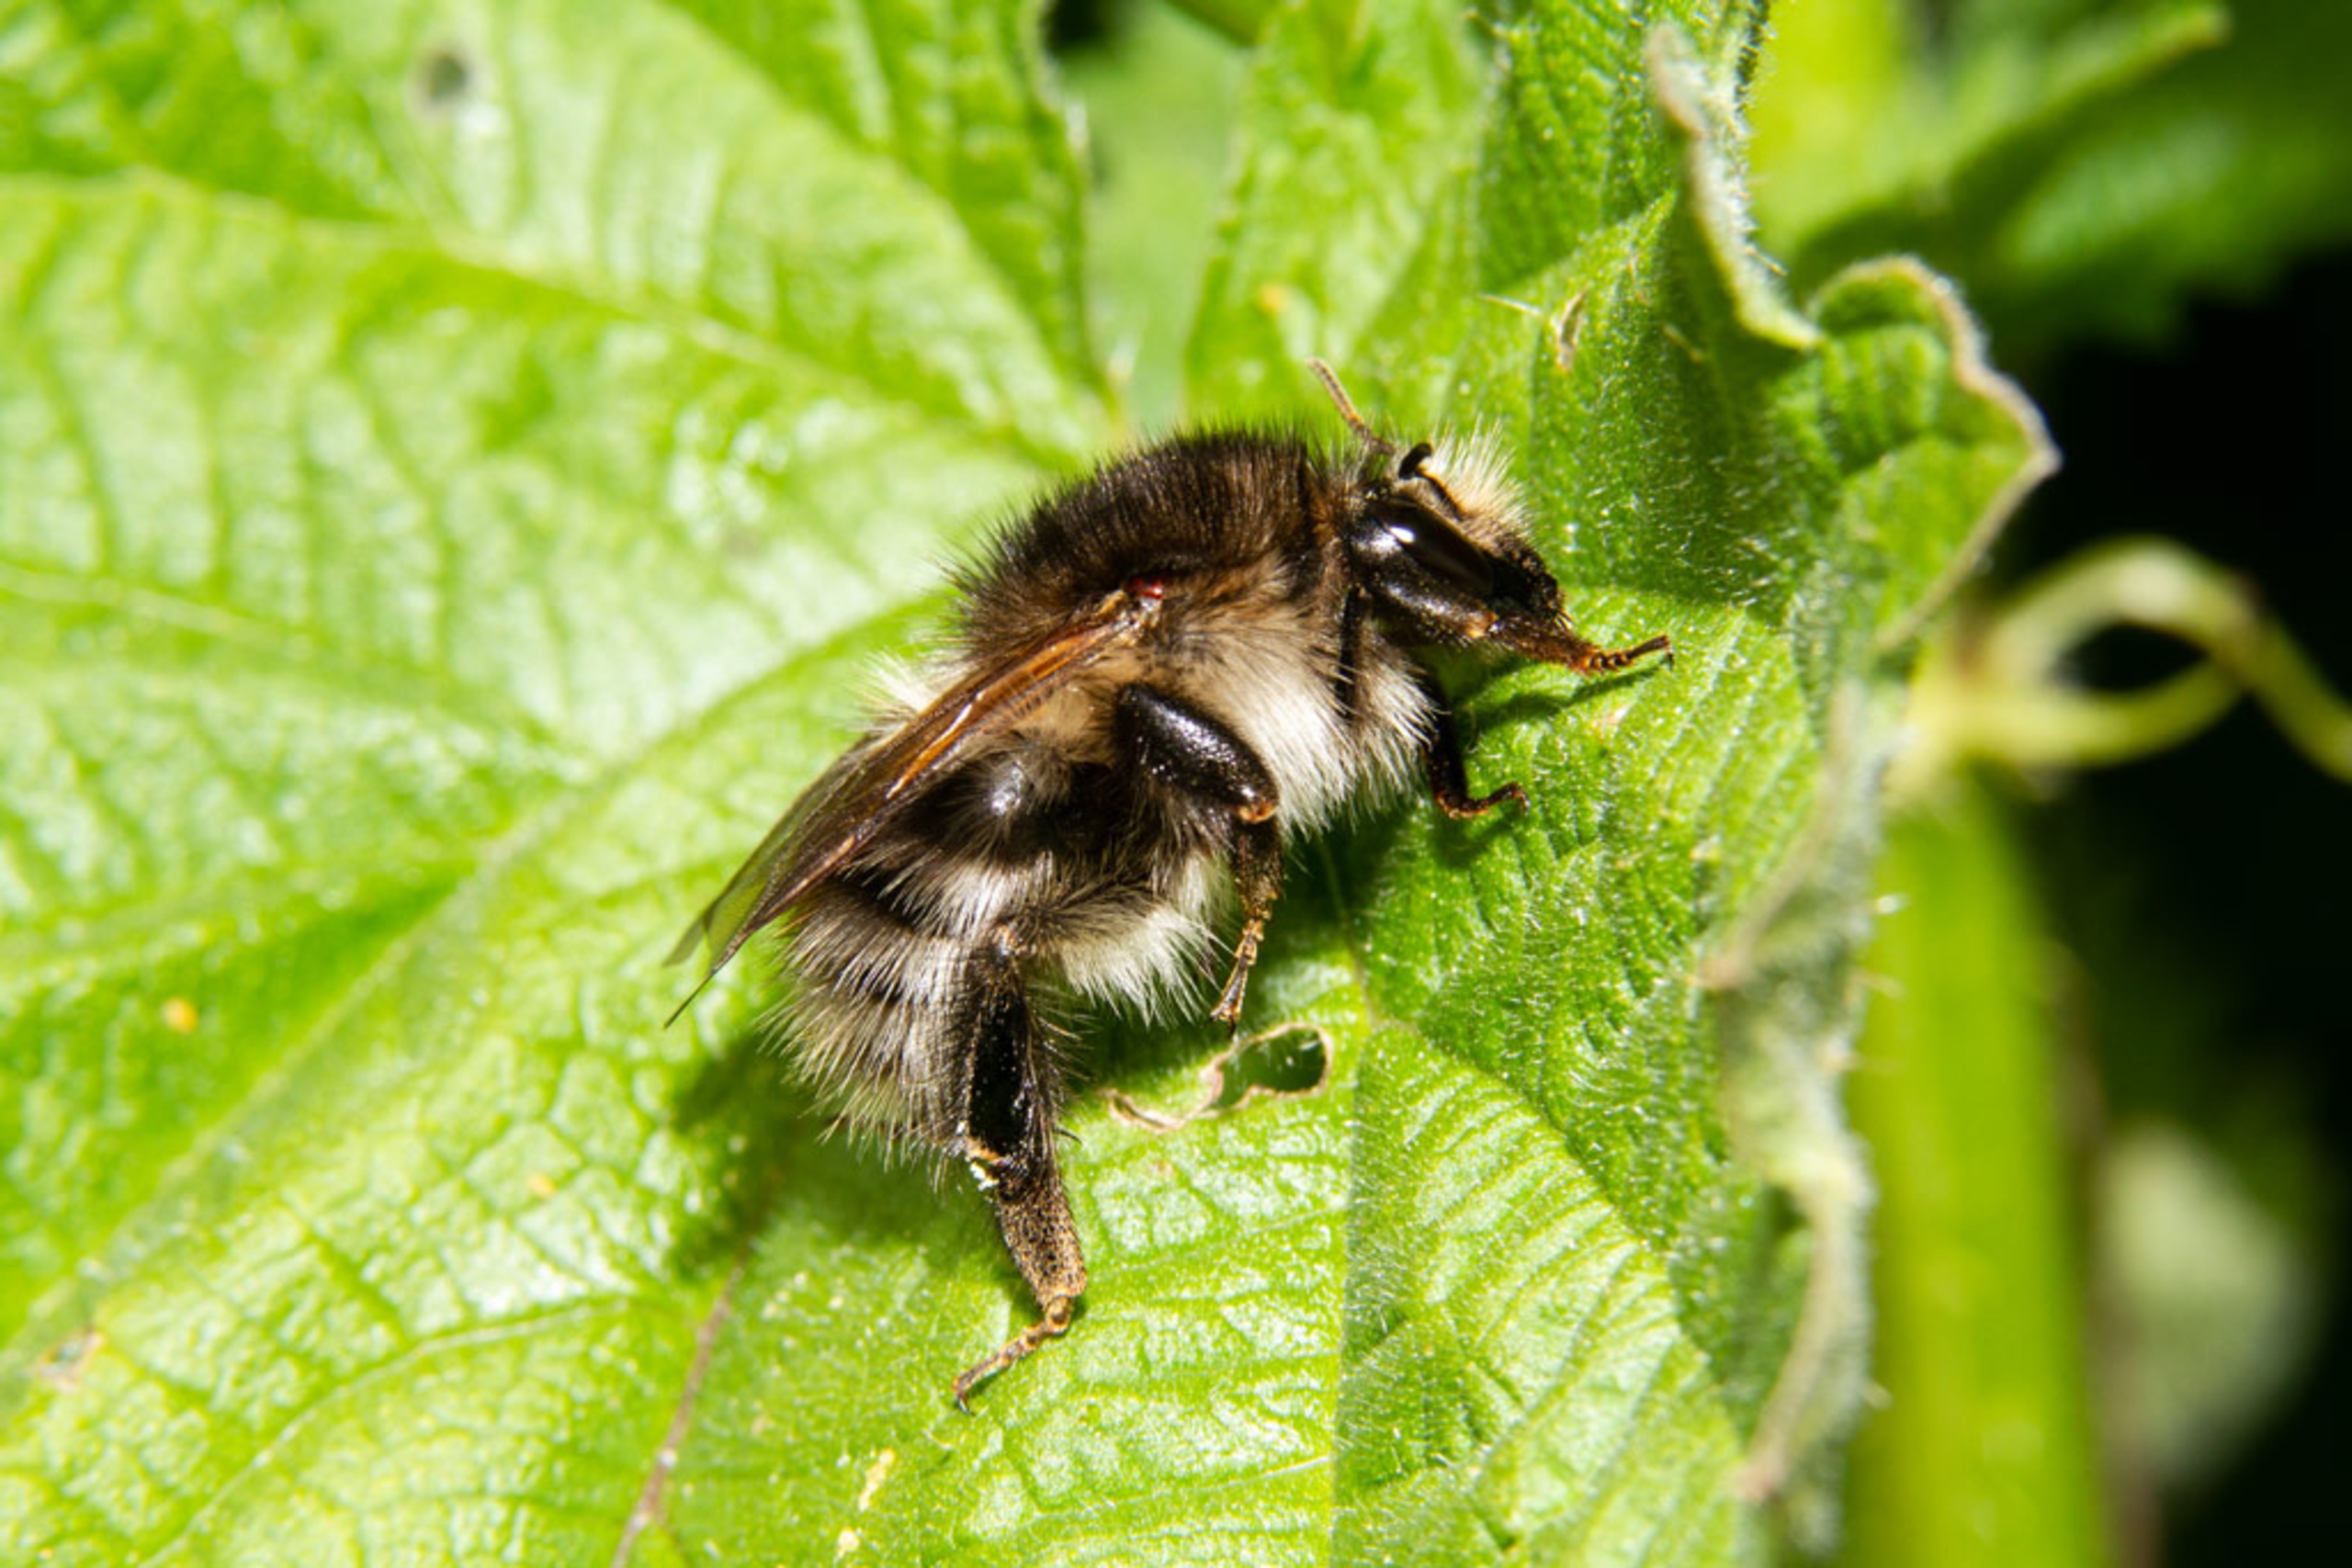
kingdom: Animalia
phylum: Arthropoda
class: Insecta
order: Hymenoptera
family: Apidae
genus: Bombus
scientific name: Bombus pascuorum
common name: Agerhumle
